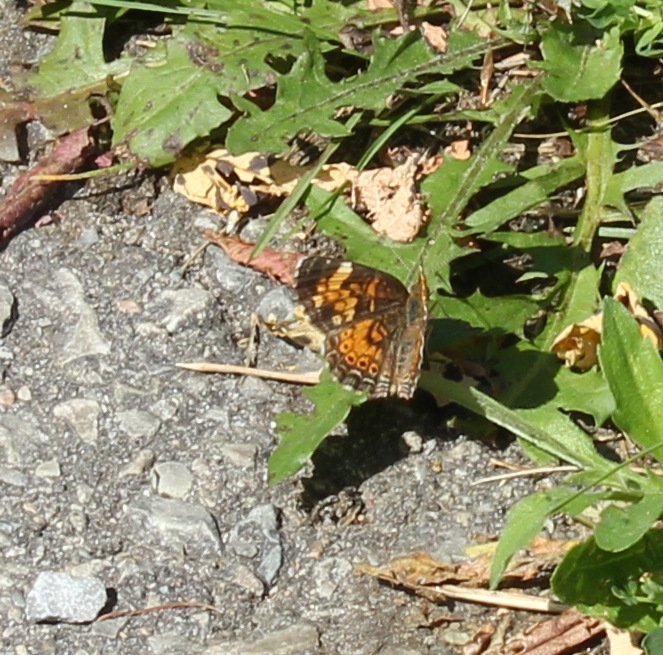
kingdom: Animalia
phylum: Arthropoda
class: Insecta
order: Lepidoptera
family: Nymphalidae
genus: Phyciodes
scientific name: Phyciodes tharos
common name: Northern Crescent
